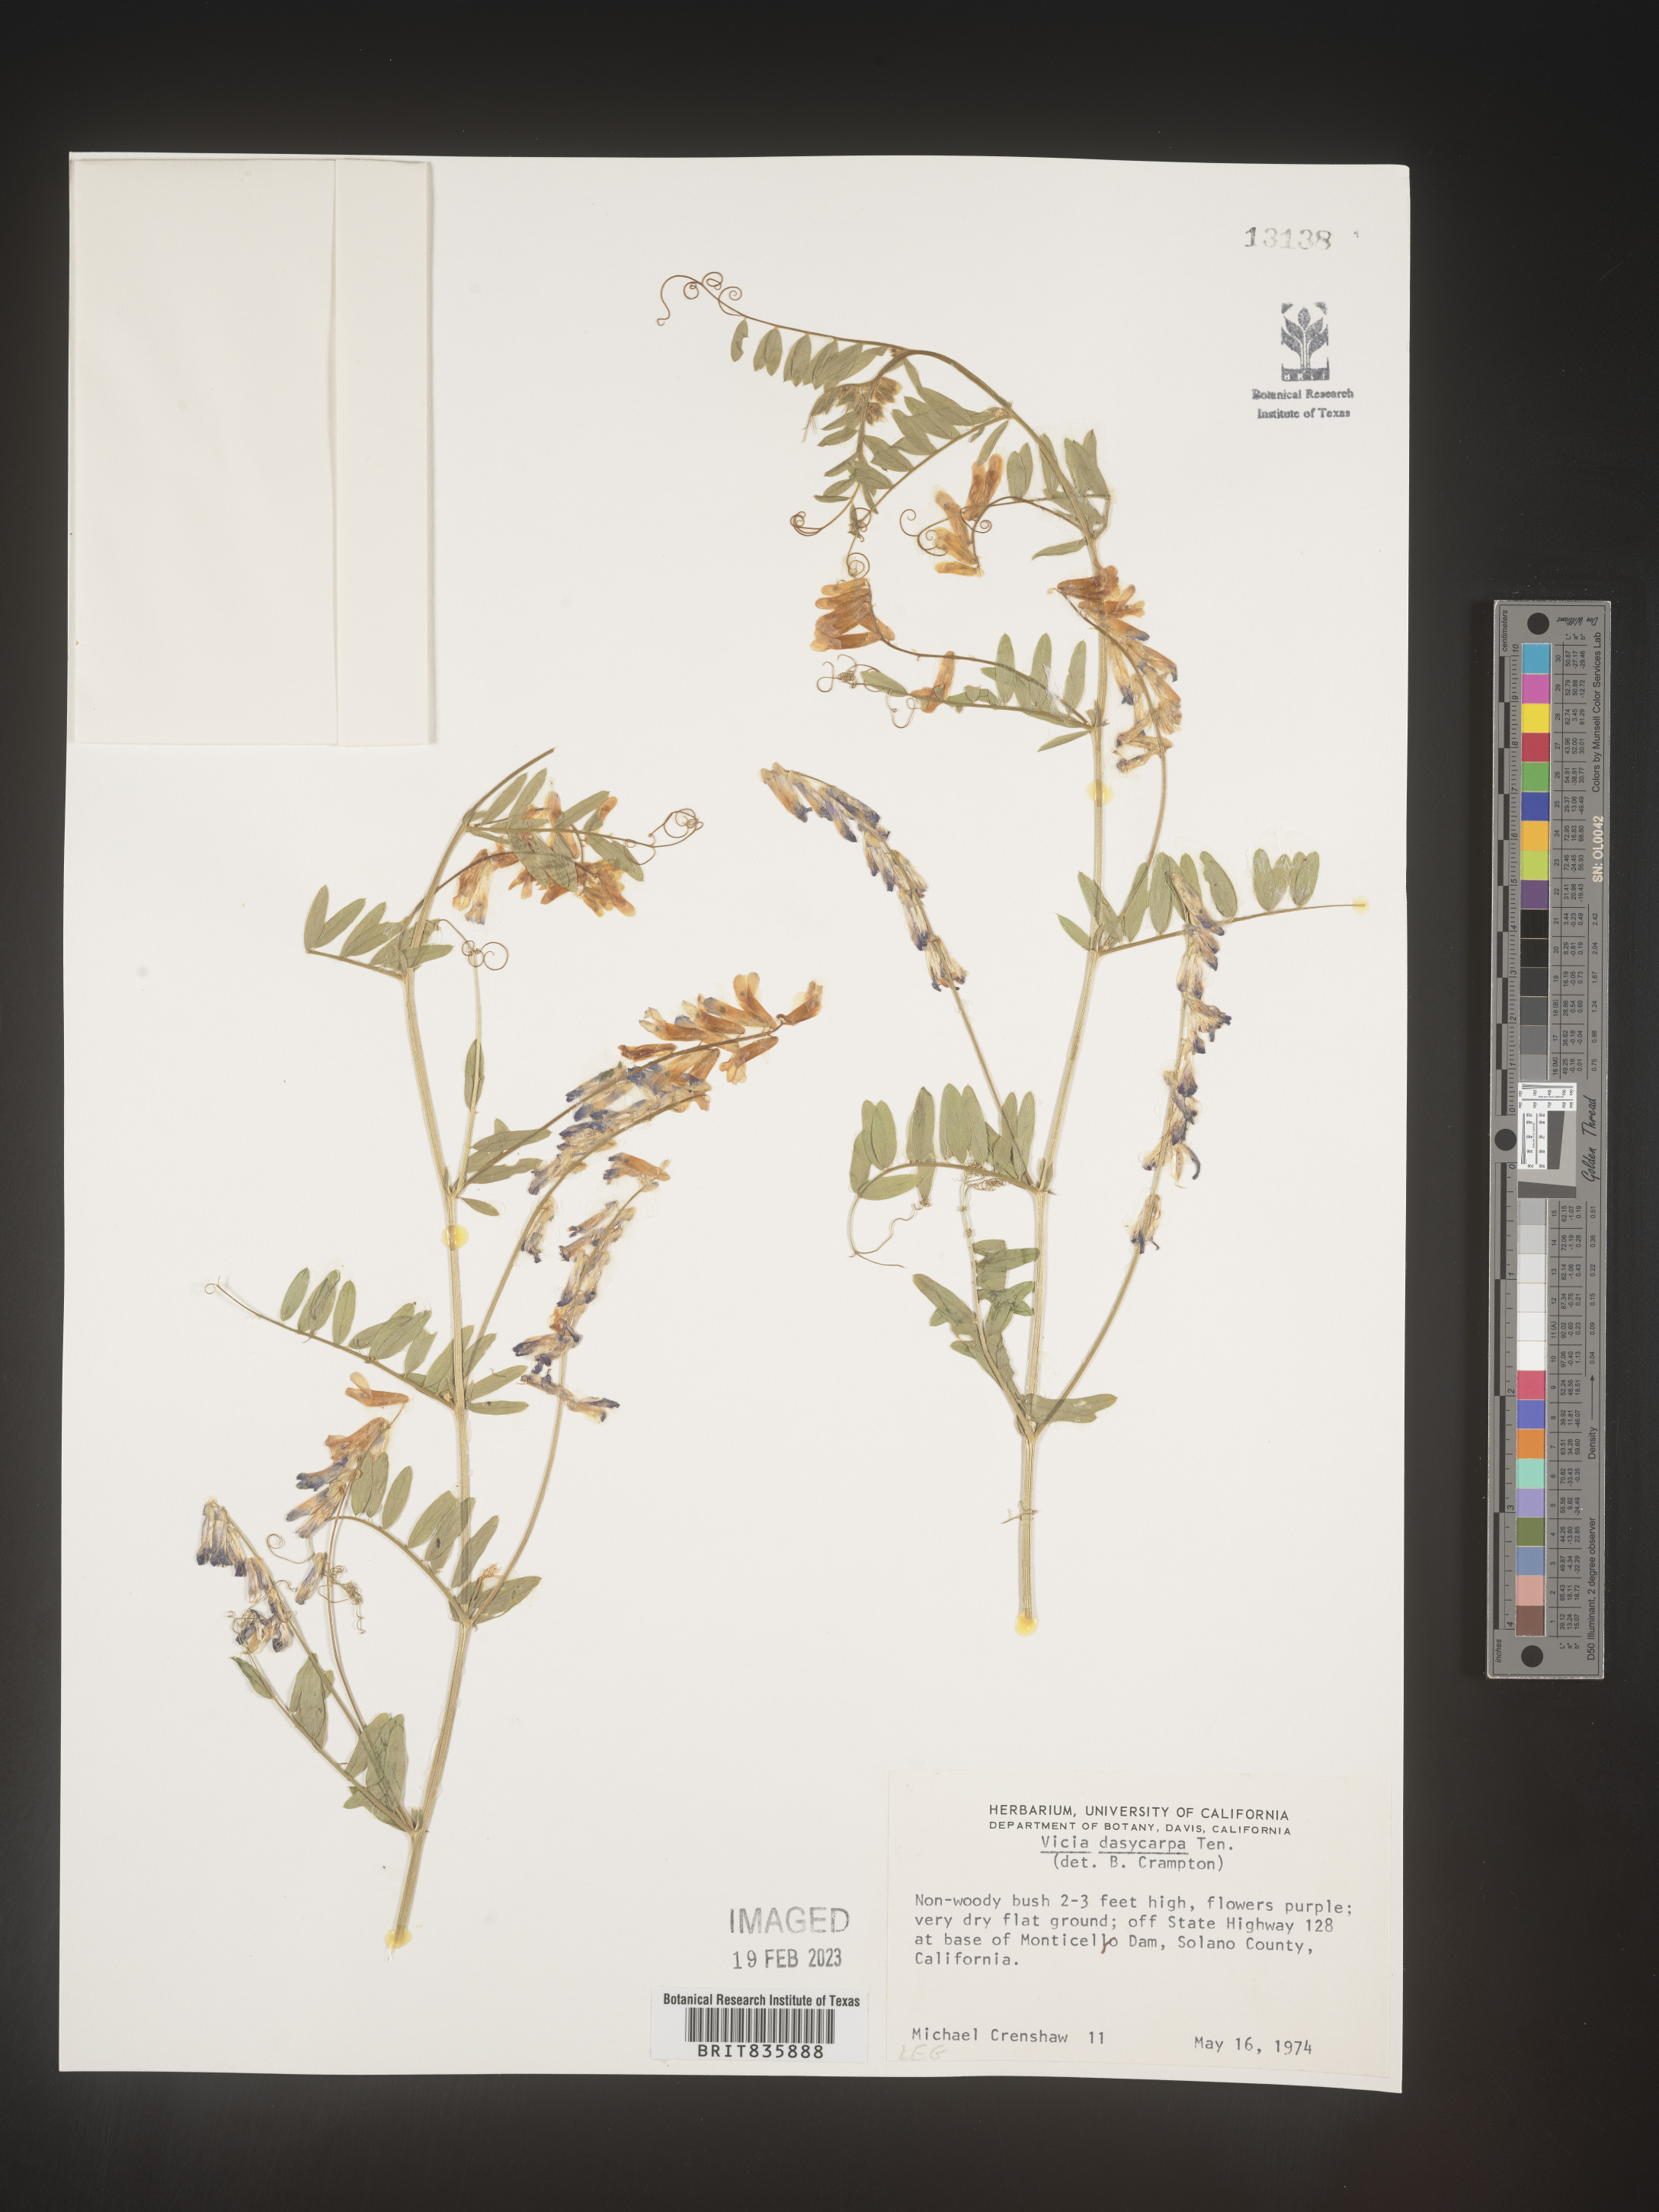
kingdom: Plantae
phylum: Tracheophyta
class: Magnoliopsida
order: Fabales
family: Fabaceae
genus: Vicia
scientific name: Vicia villosa
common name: Fodder vetch
